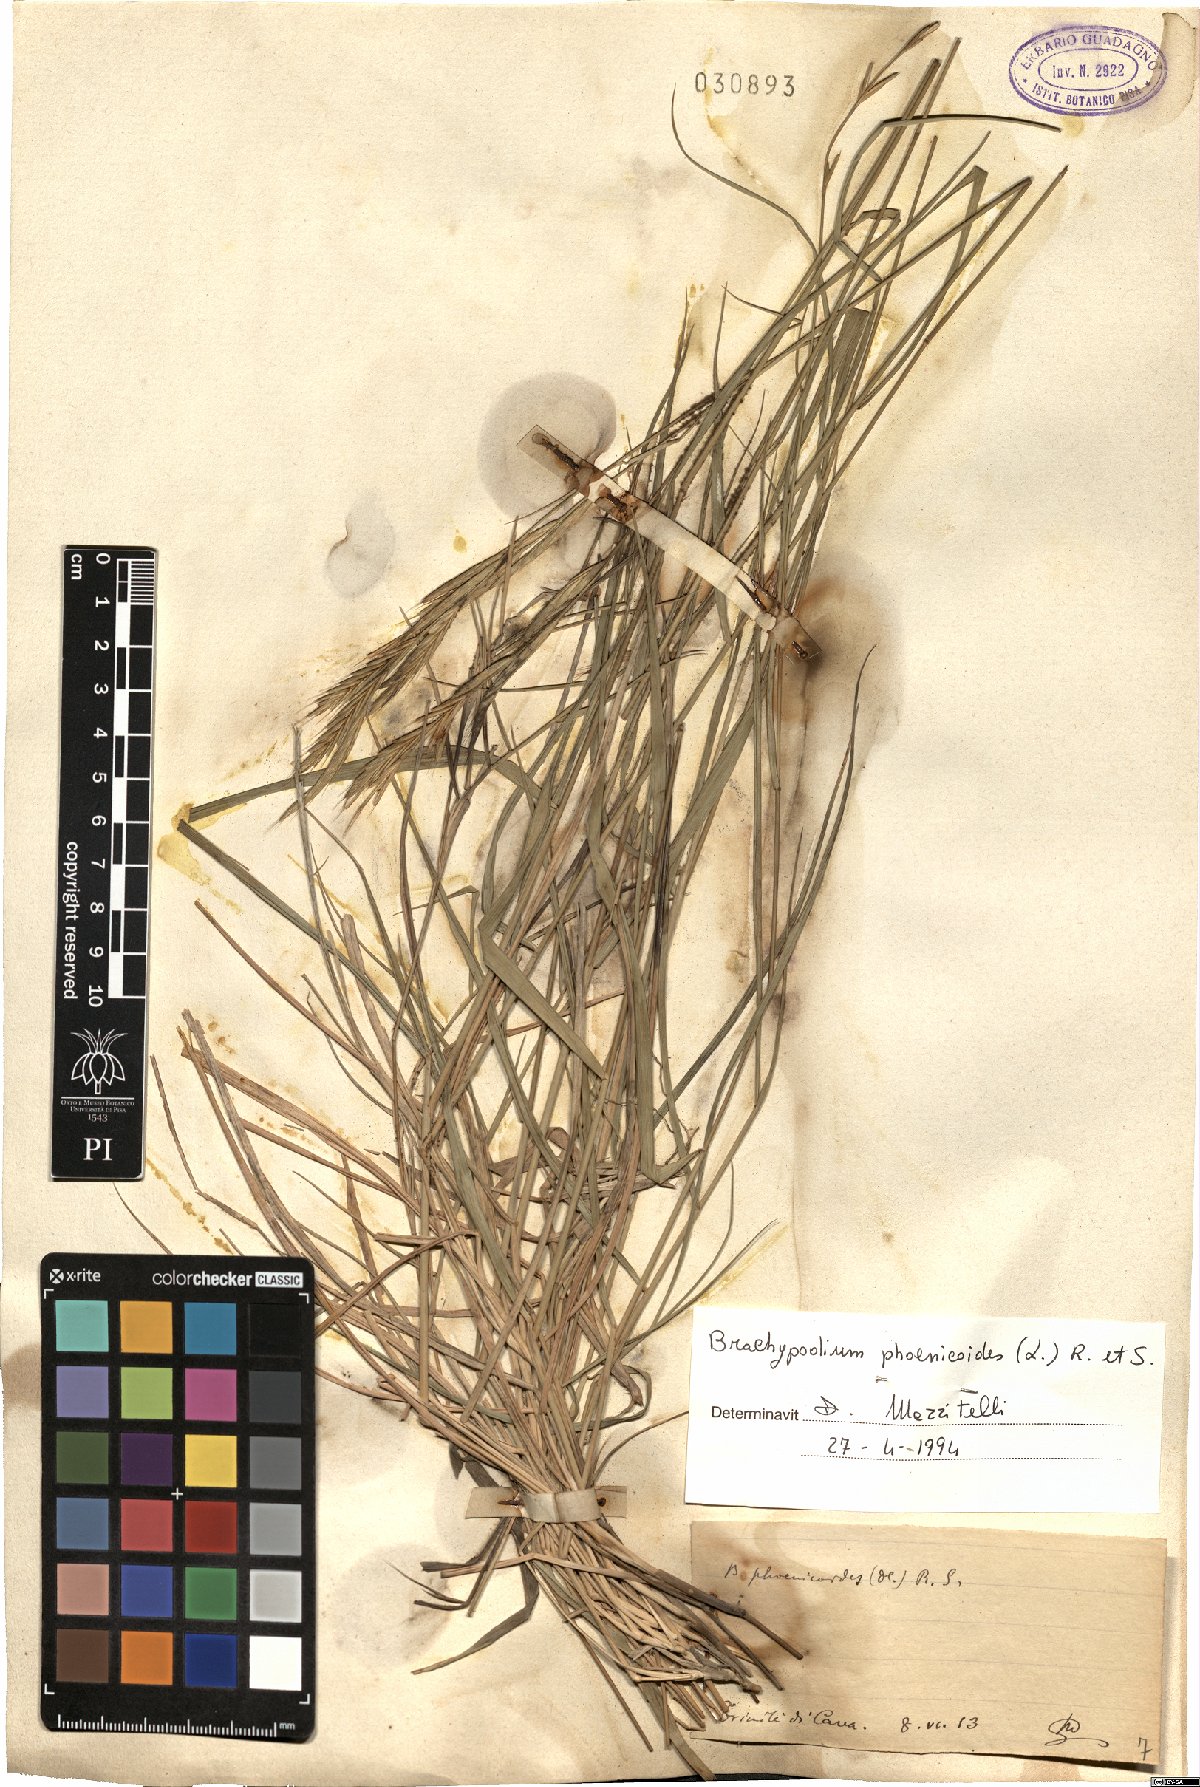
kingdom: Plantae
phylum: Tracheophyta
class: Liliopsida
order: Poales
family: Poaceae
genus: Brachypodium
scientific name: Brachypodium phoenicoides
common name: Thinleaf false brome
